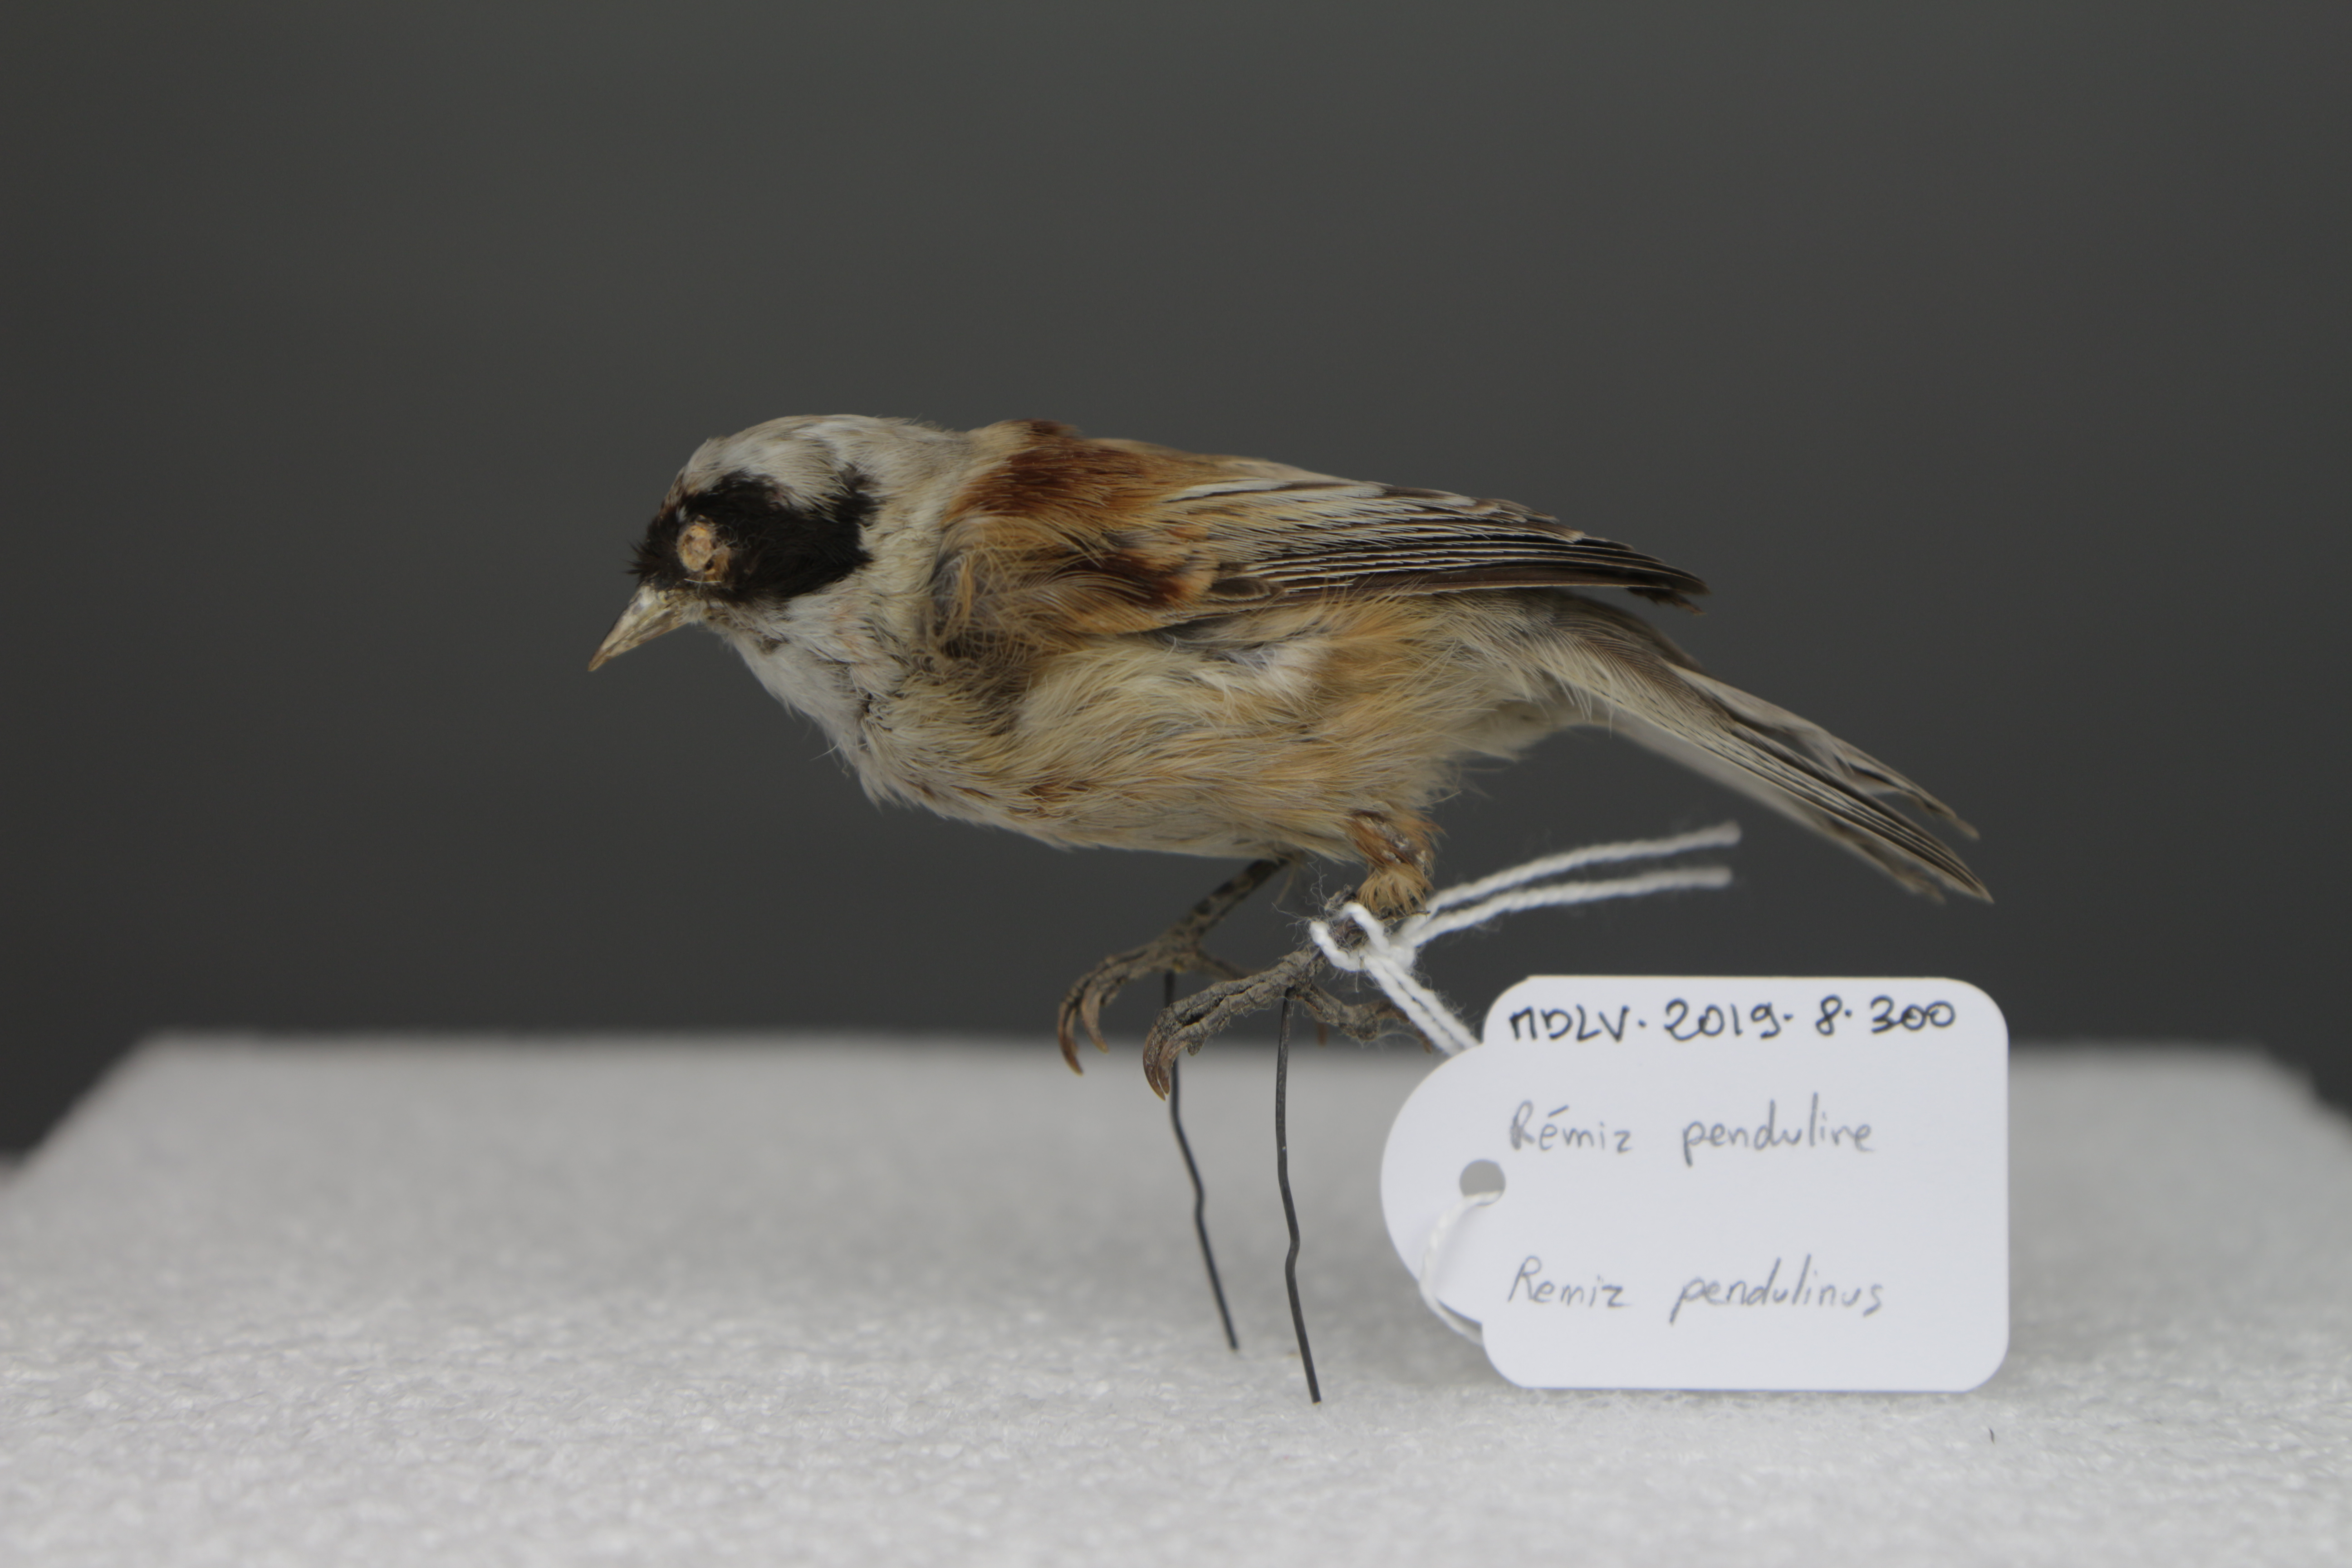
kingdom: Animalia
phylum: Chordata
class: Aves
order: Passeriformes
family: Remizidae
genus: Remiz
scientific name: Remiz pendulinus
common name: Eurasian penduline tit
